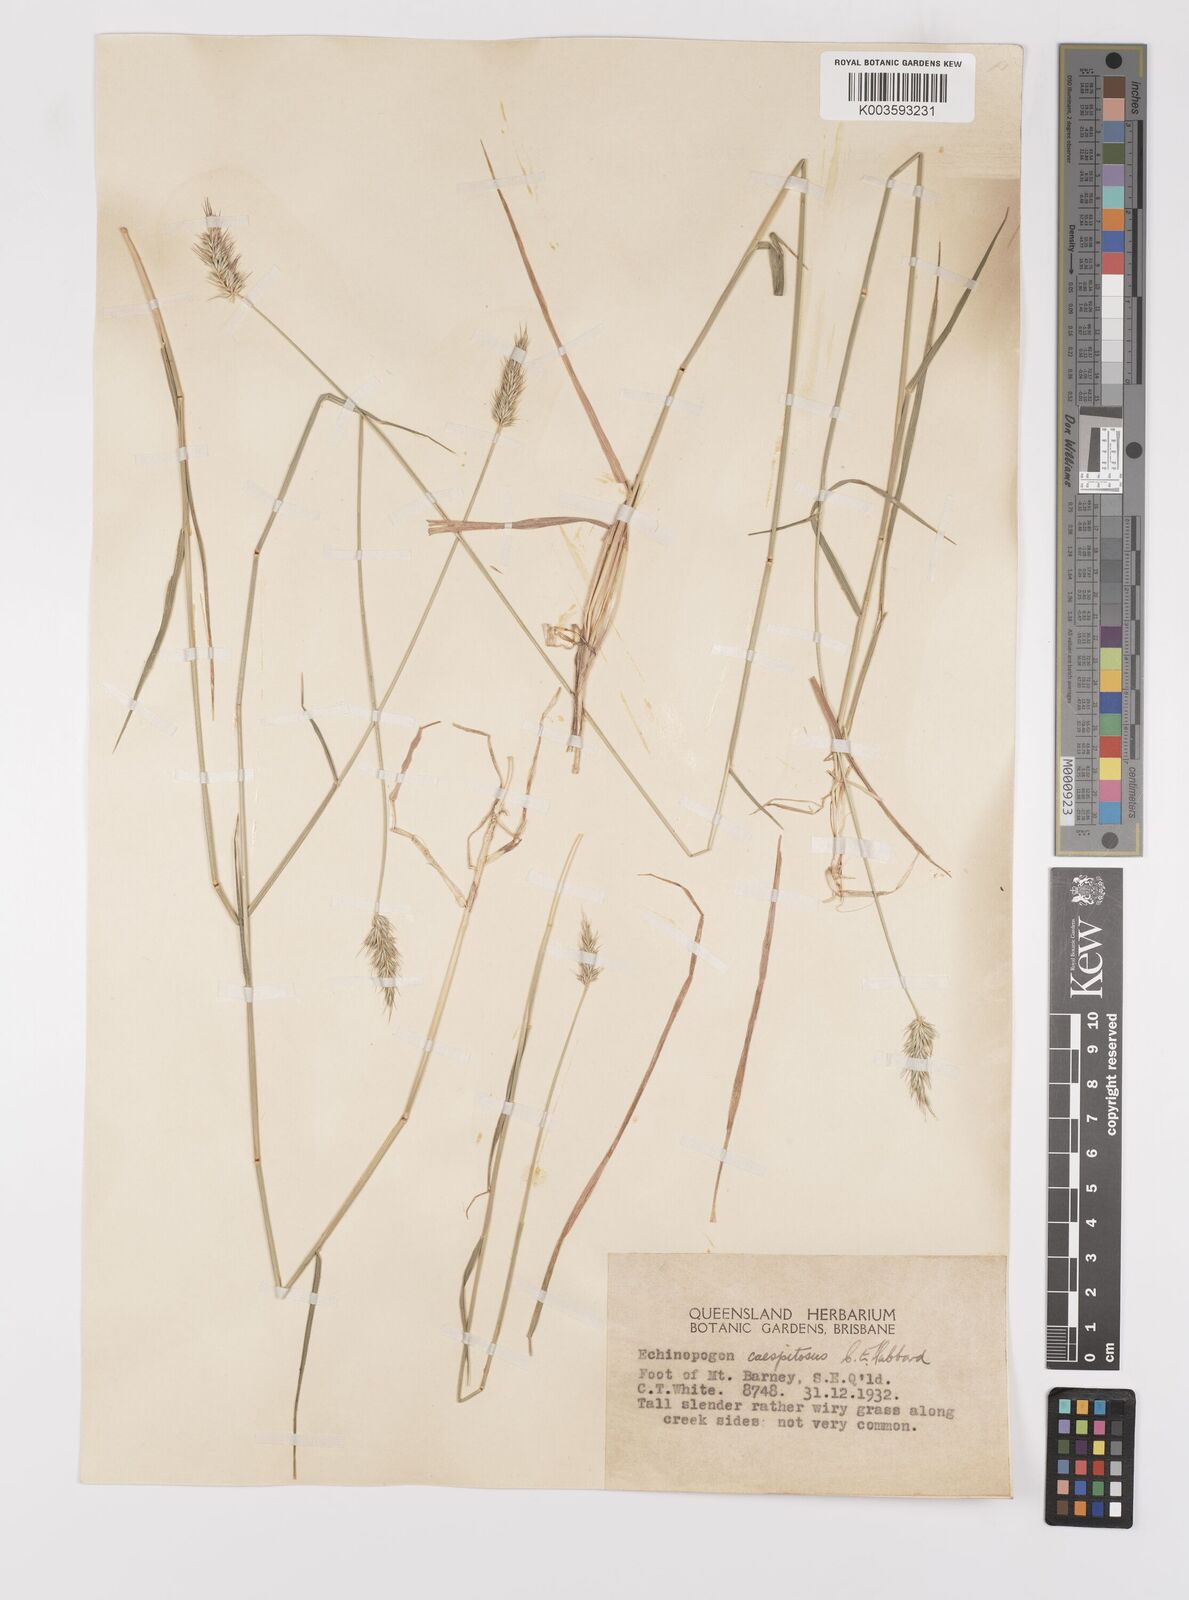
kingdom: Plantae
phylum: Tracheophyta
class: Liliopsida
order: Poales
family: Poaceae
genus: Echinopogon
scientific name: Echinopogon caespitosus
